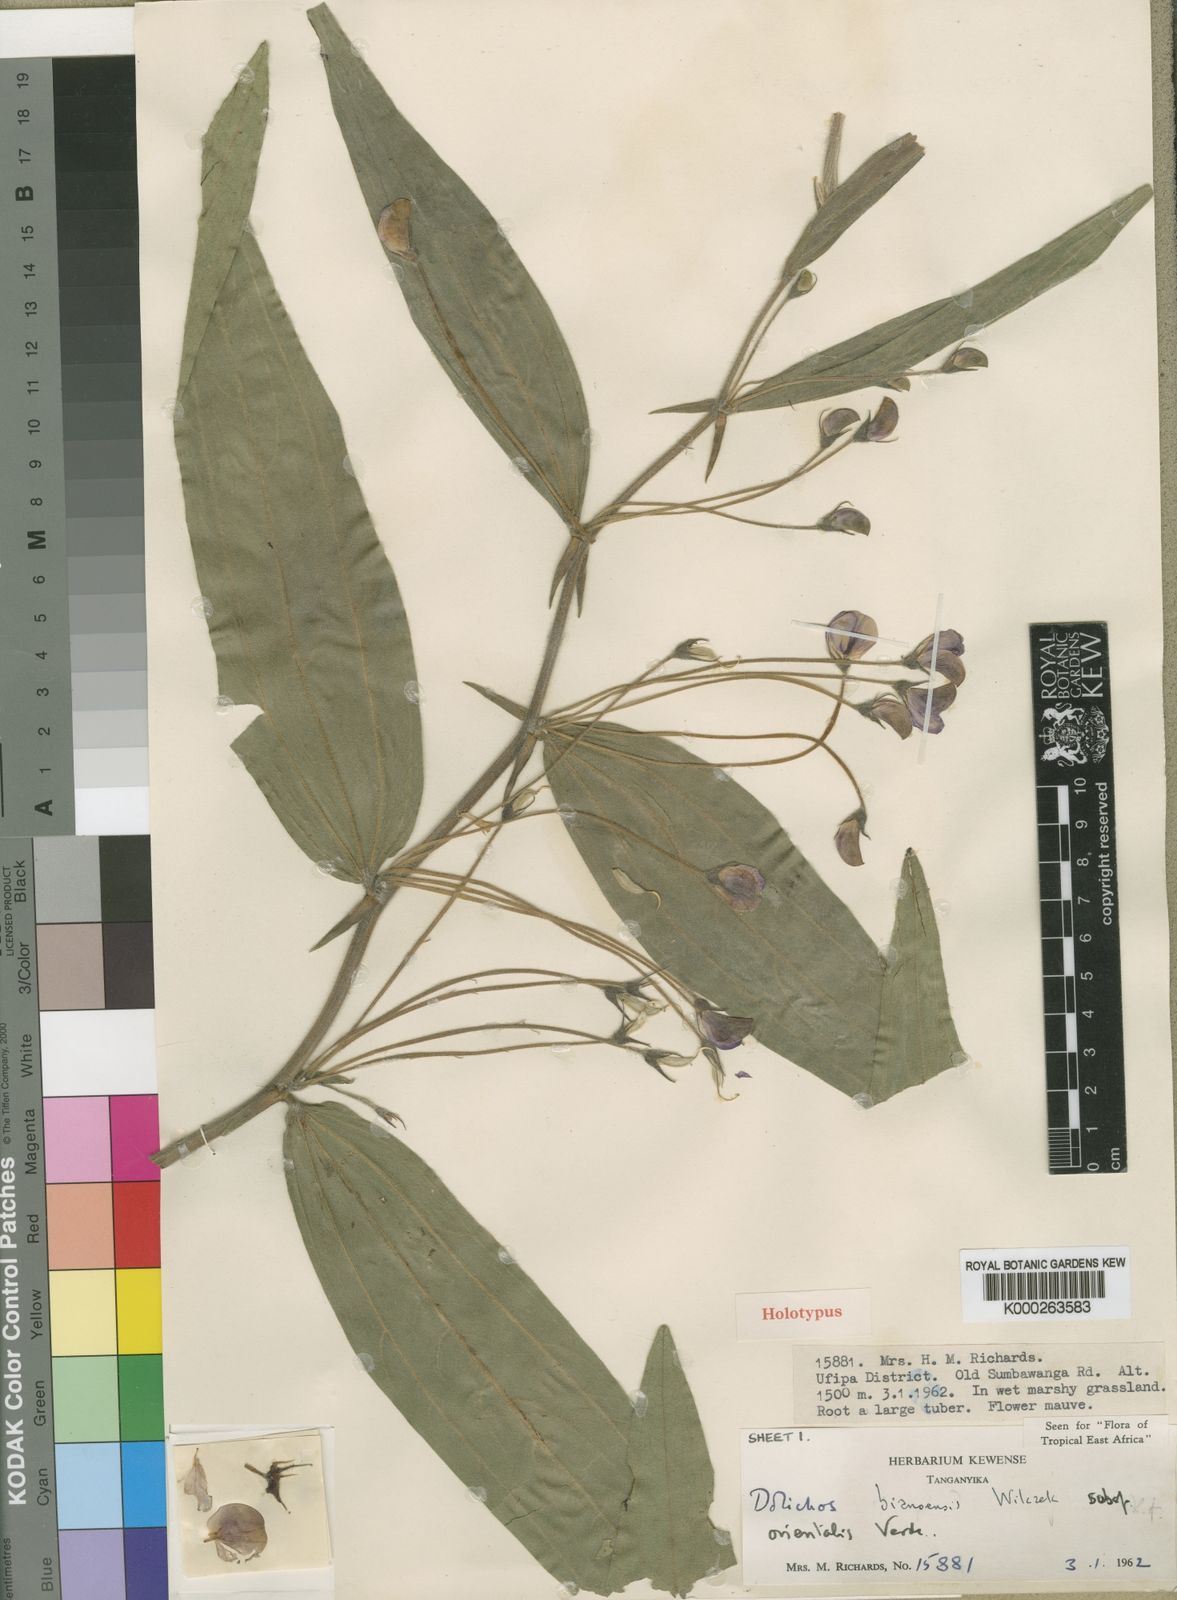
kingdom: Plantae
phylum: Tracheophyta
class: Magnoliopsida
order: Fabales
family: Fabaceae
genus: Dolichos
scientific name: Dolichos bianoensis
